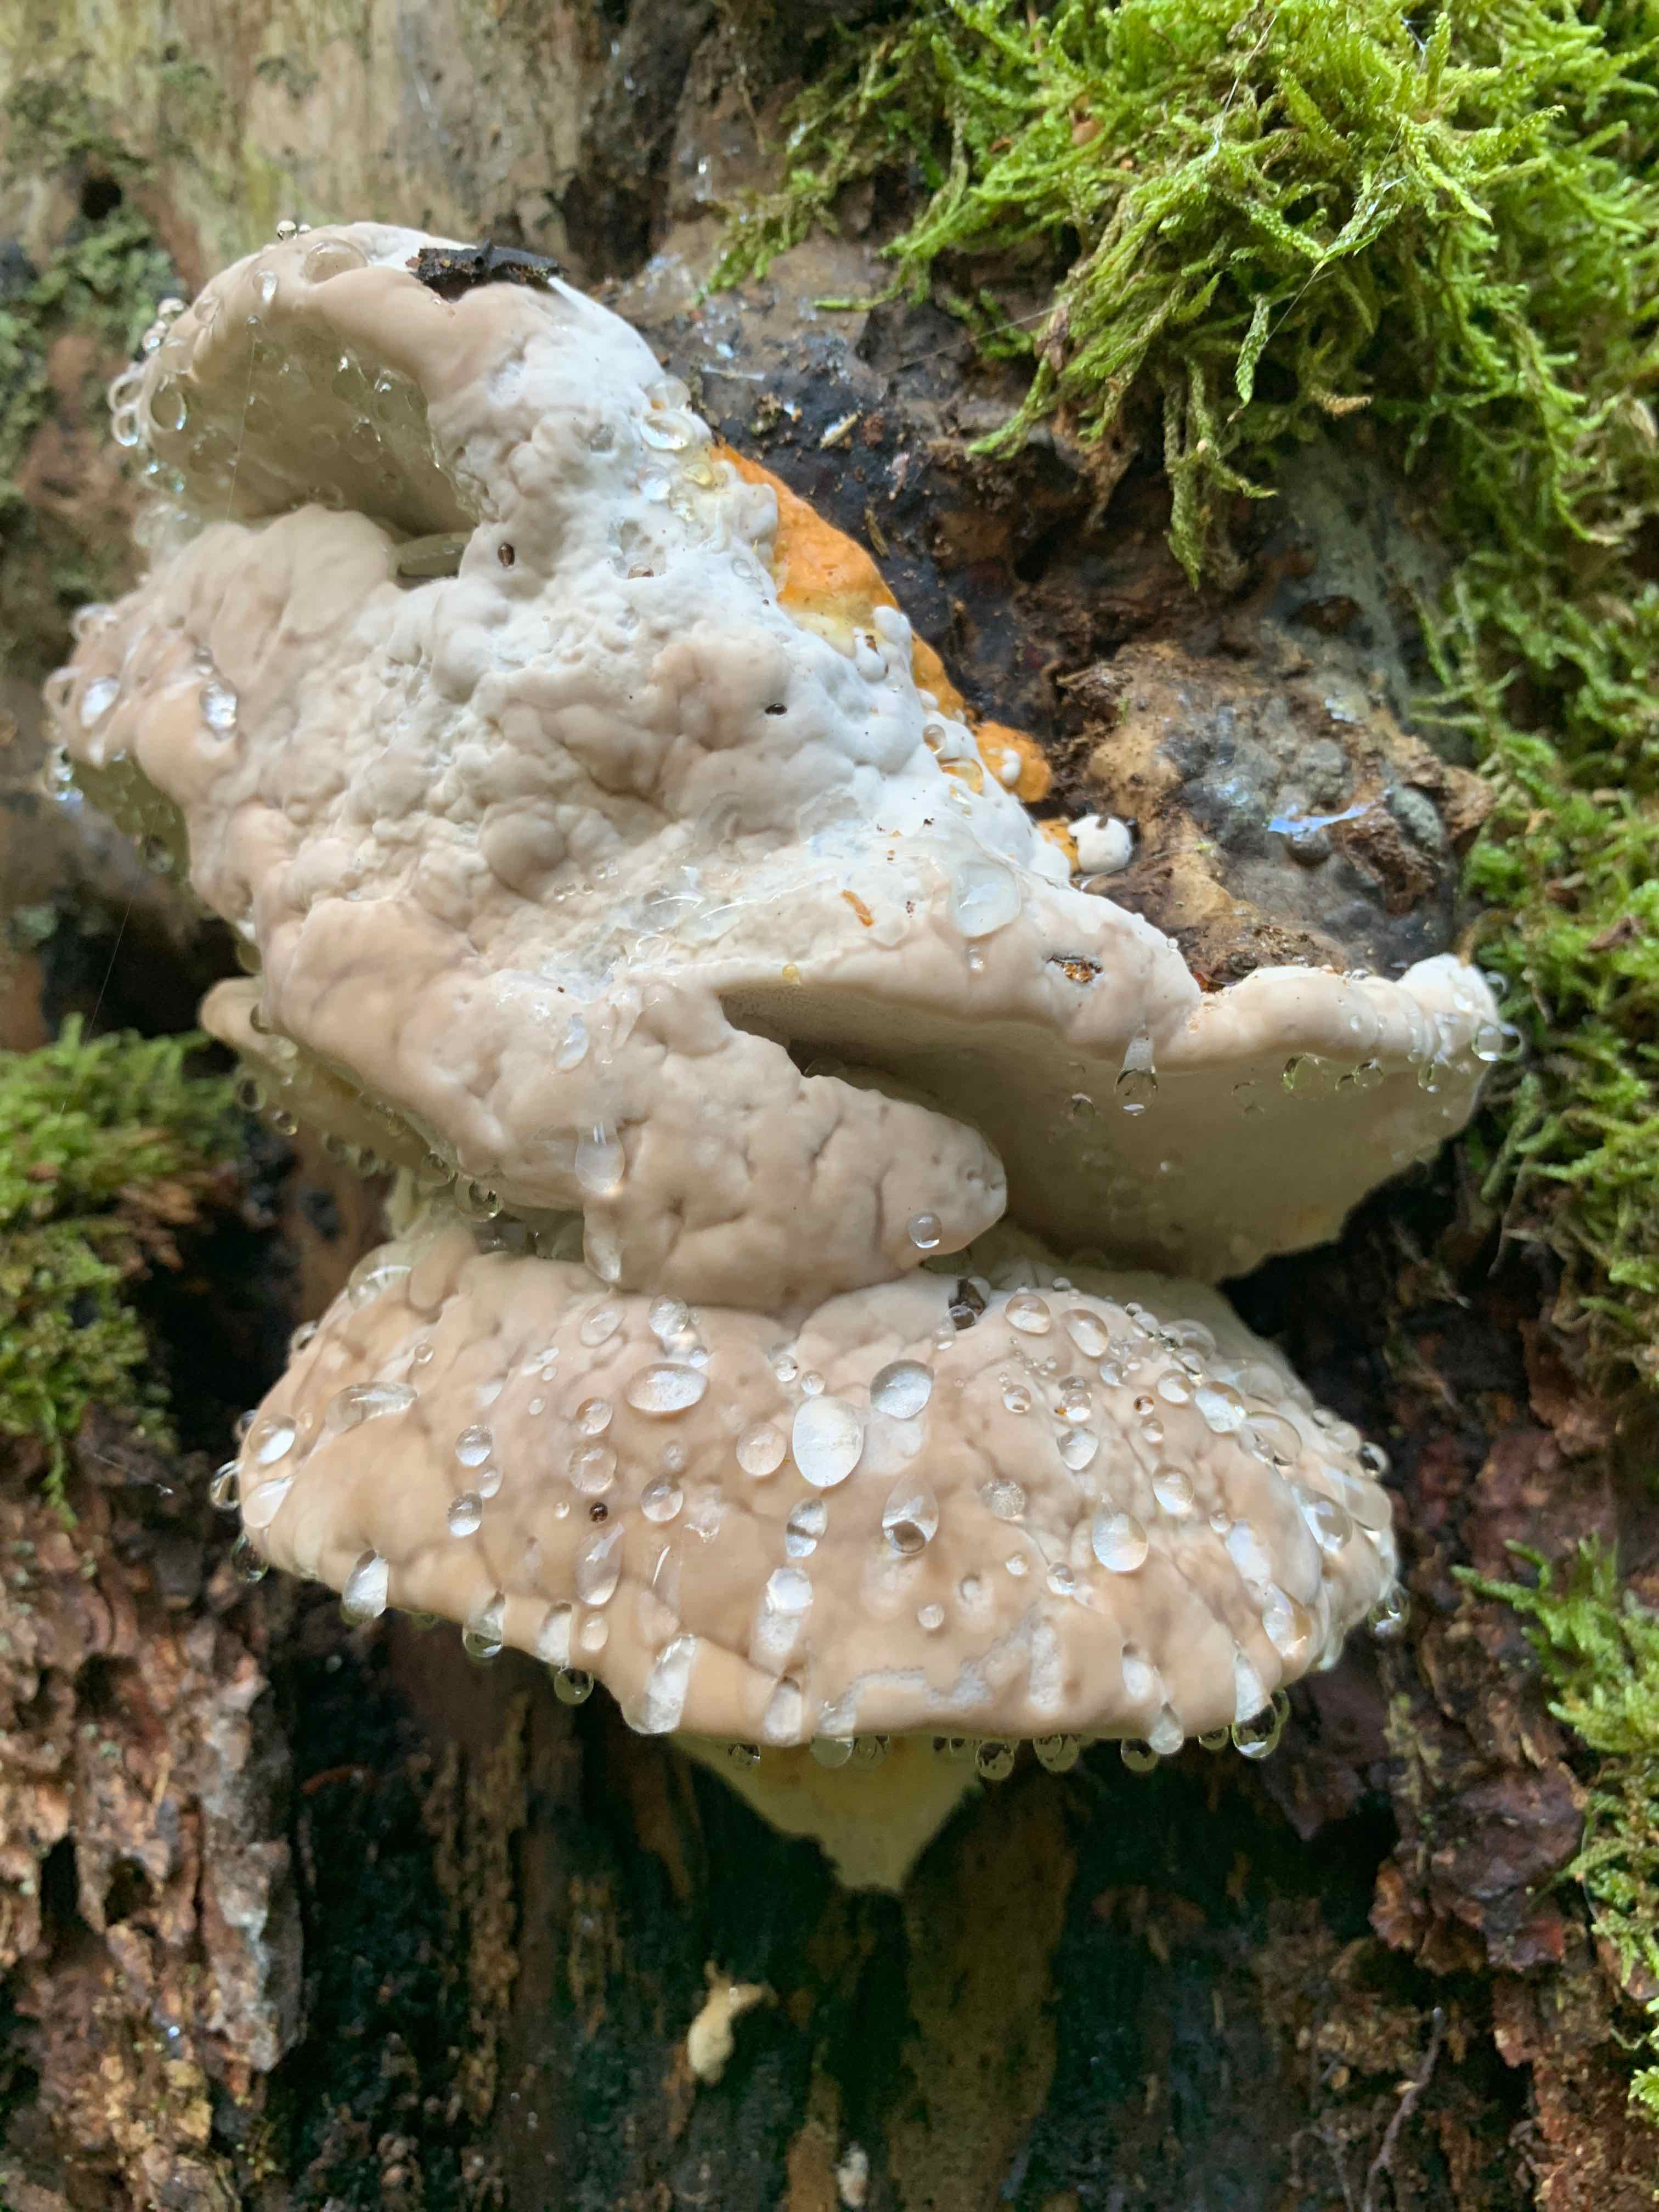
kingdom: Fungi
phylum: Basidiomycota
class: Agaricomycetes
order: Polyporales
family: Fomitopsidaceae
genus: Fomitopsis
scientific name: Fomitopsis pinicola
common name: randbæltet hovporesvamp
